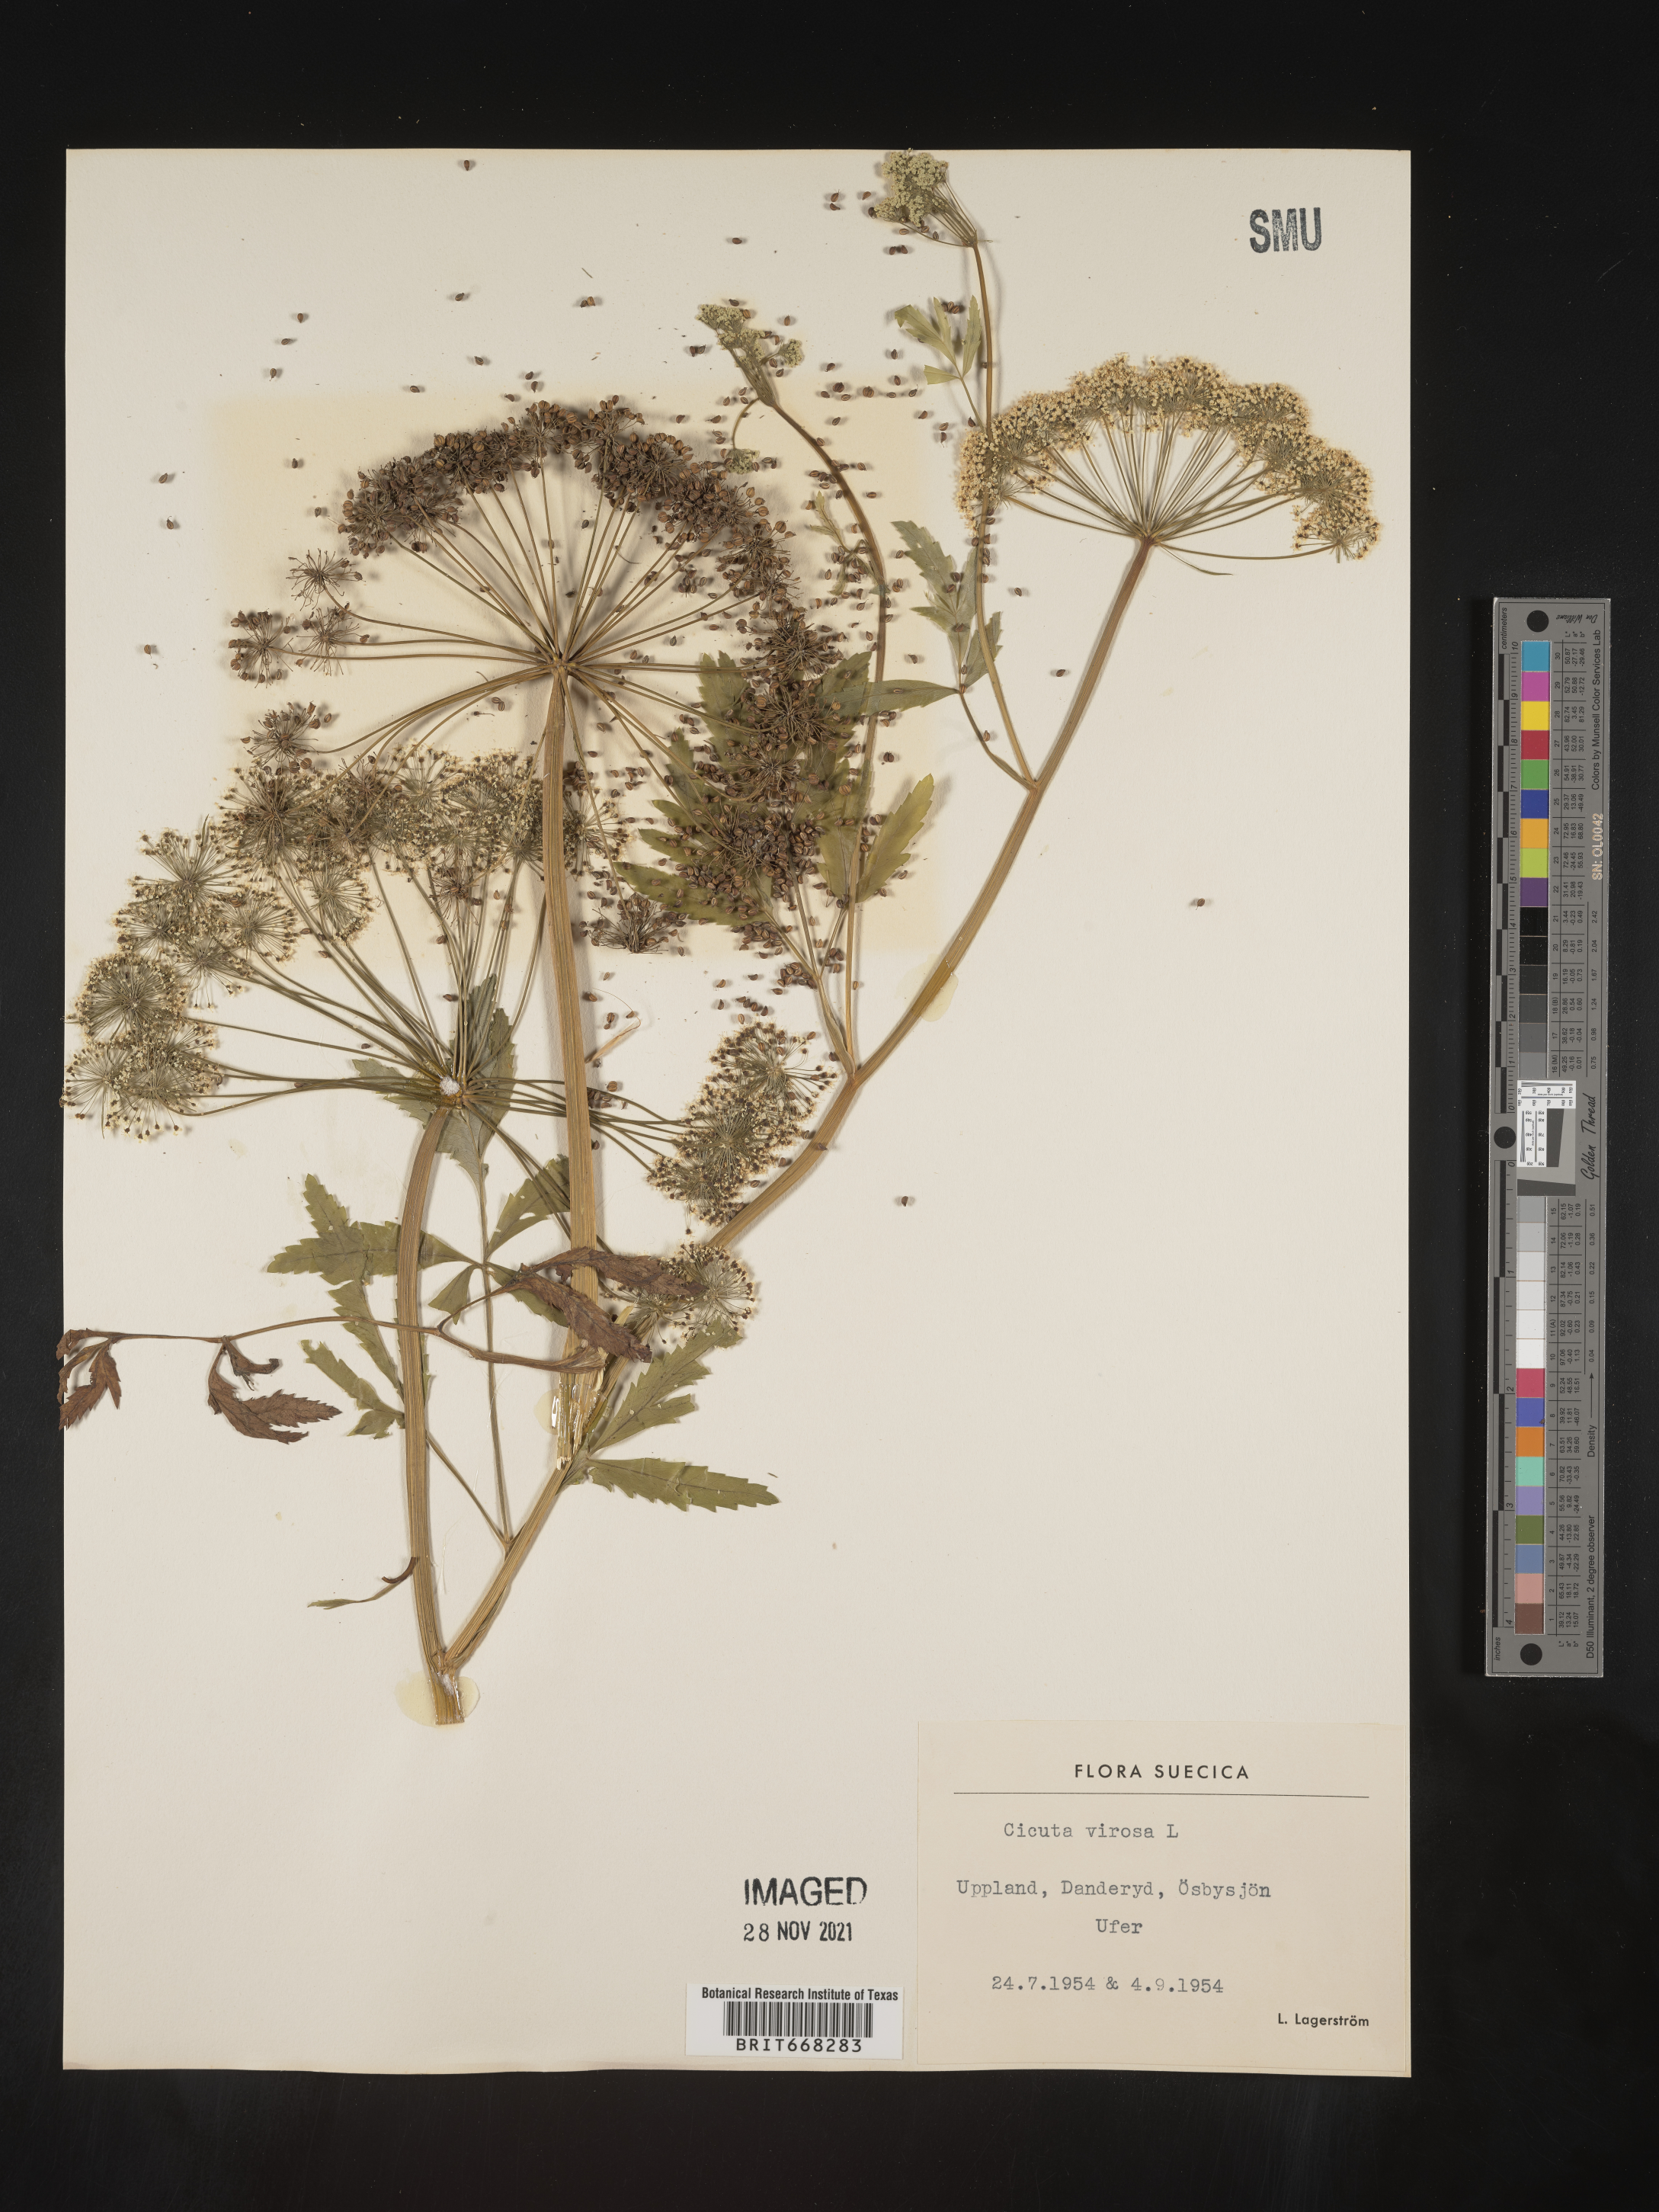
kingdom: Plantae
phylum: Tracheophyta
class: Magnoliopsida
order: Apiales
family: Apiaceae
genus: Cicuta
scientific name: Cicuta
